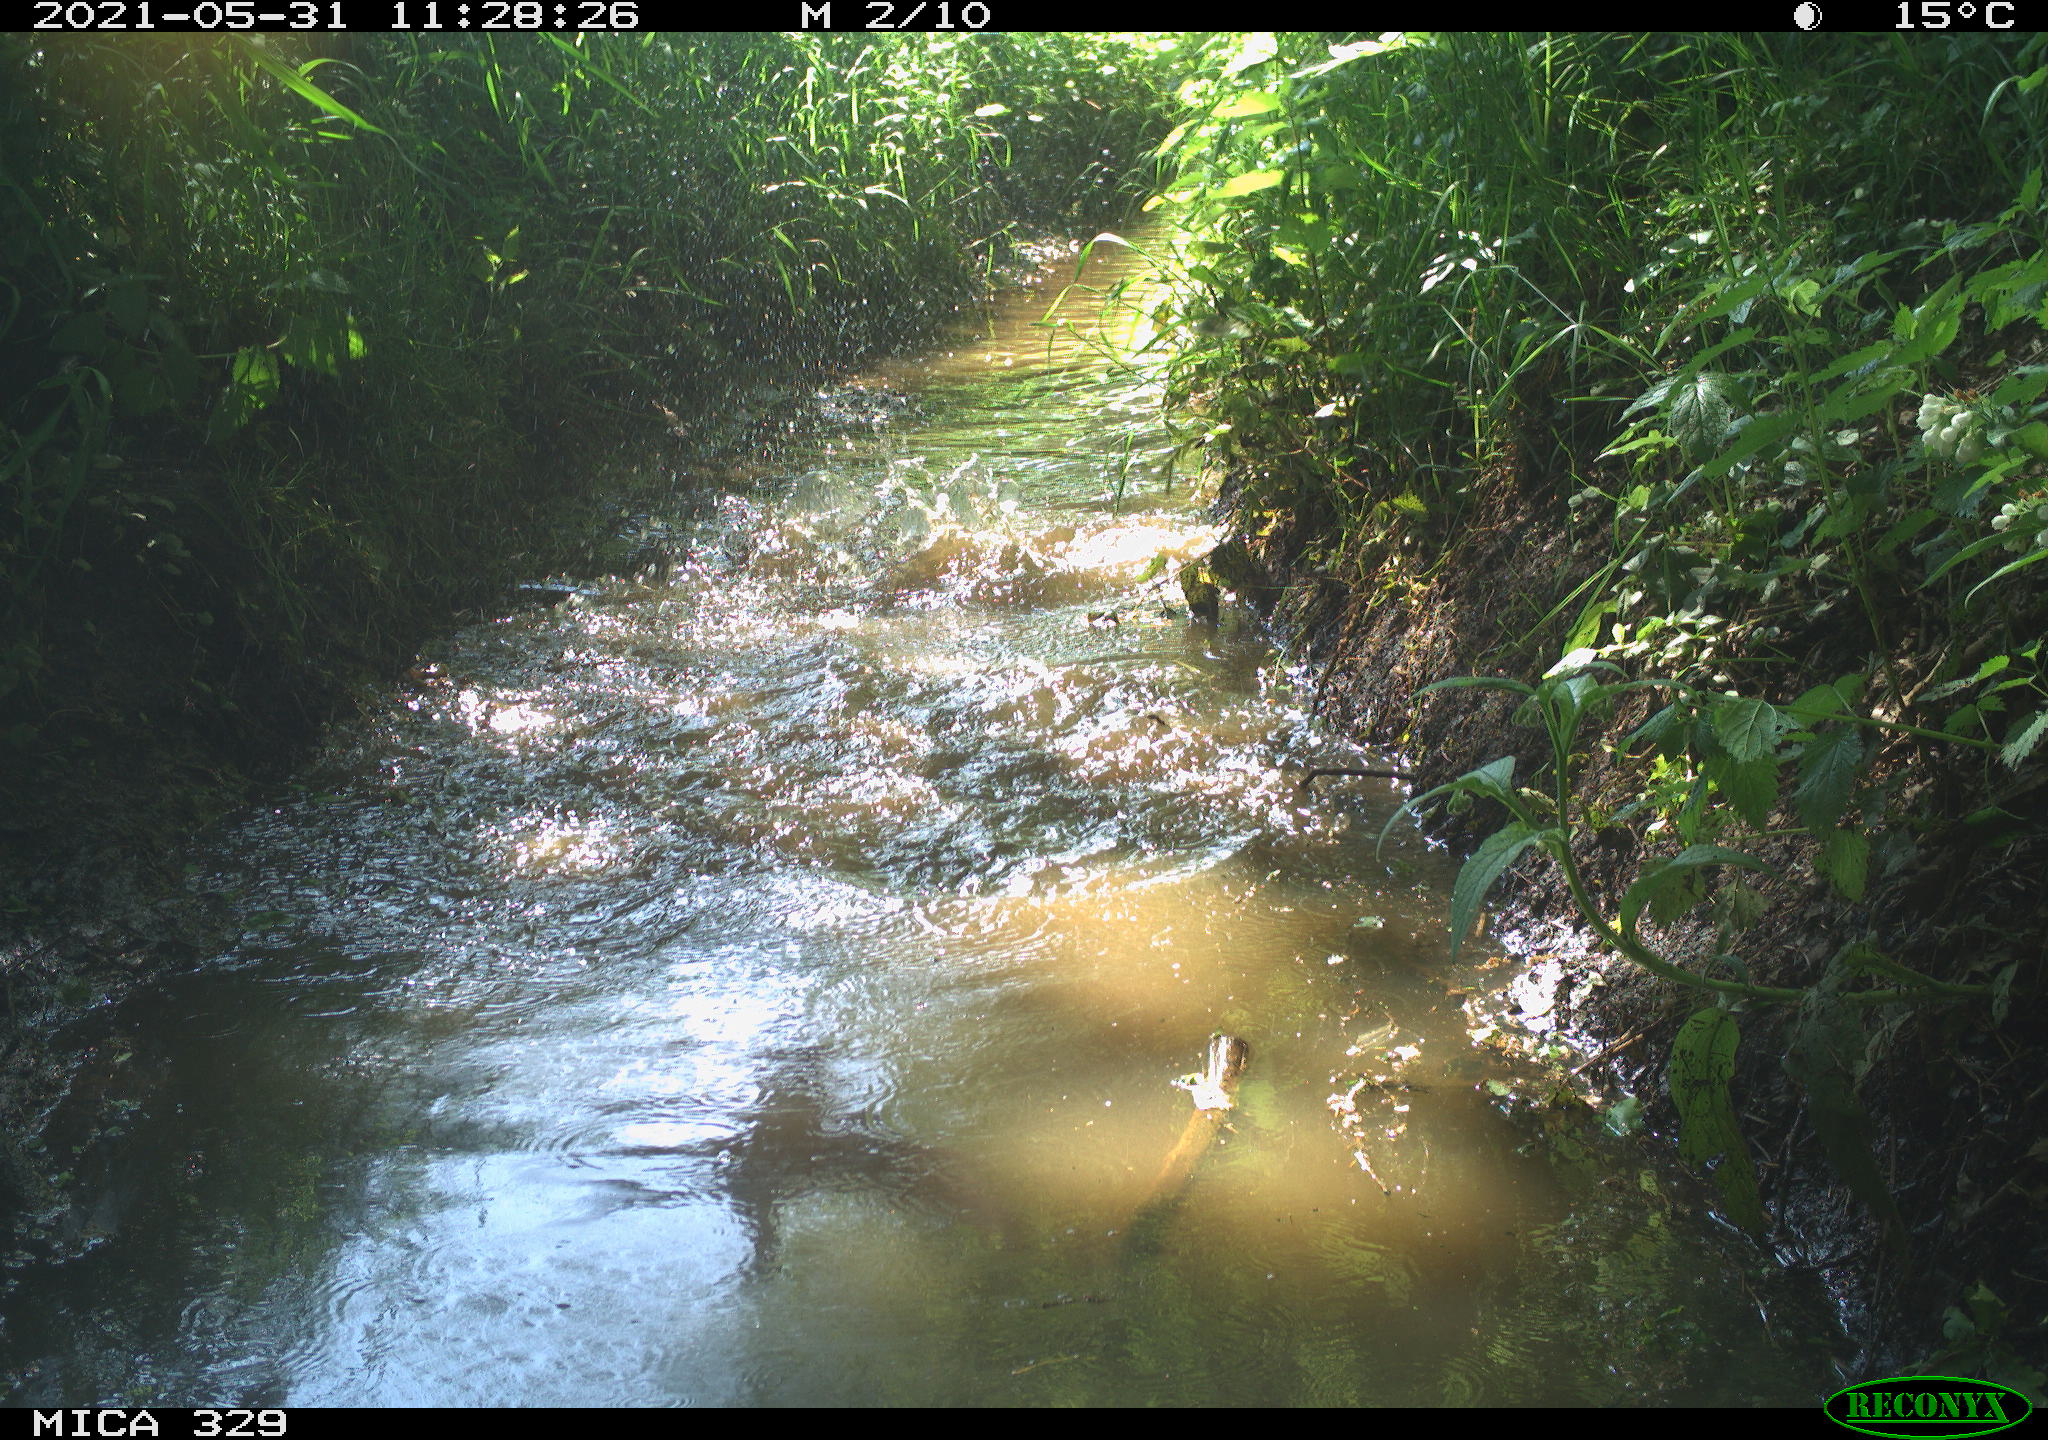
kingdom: Animalia
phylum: Chordata
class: Aves
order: Anseriformes
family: Anatidae
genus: Anas
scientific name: Anas platyrhynchos
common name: Mallard
